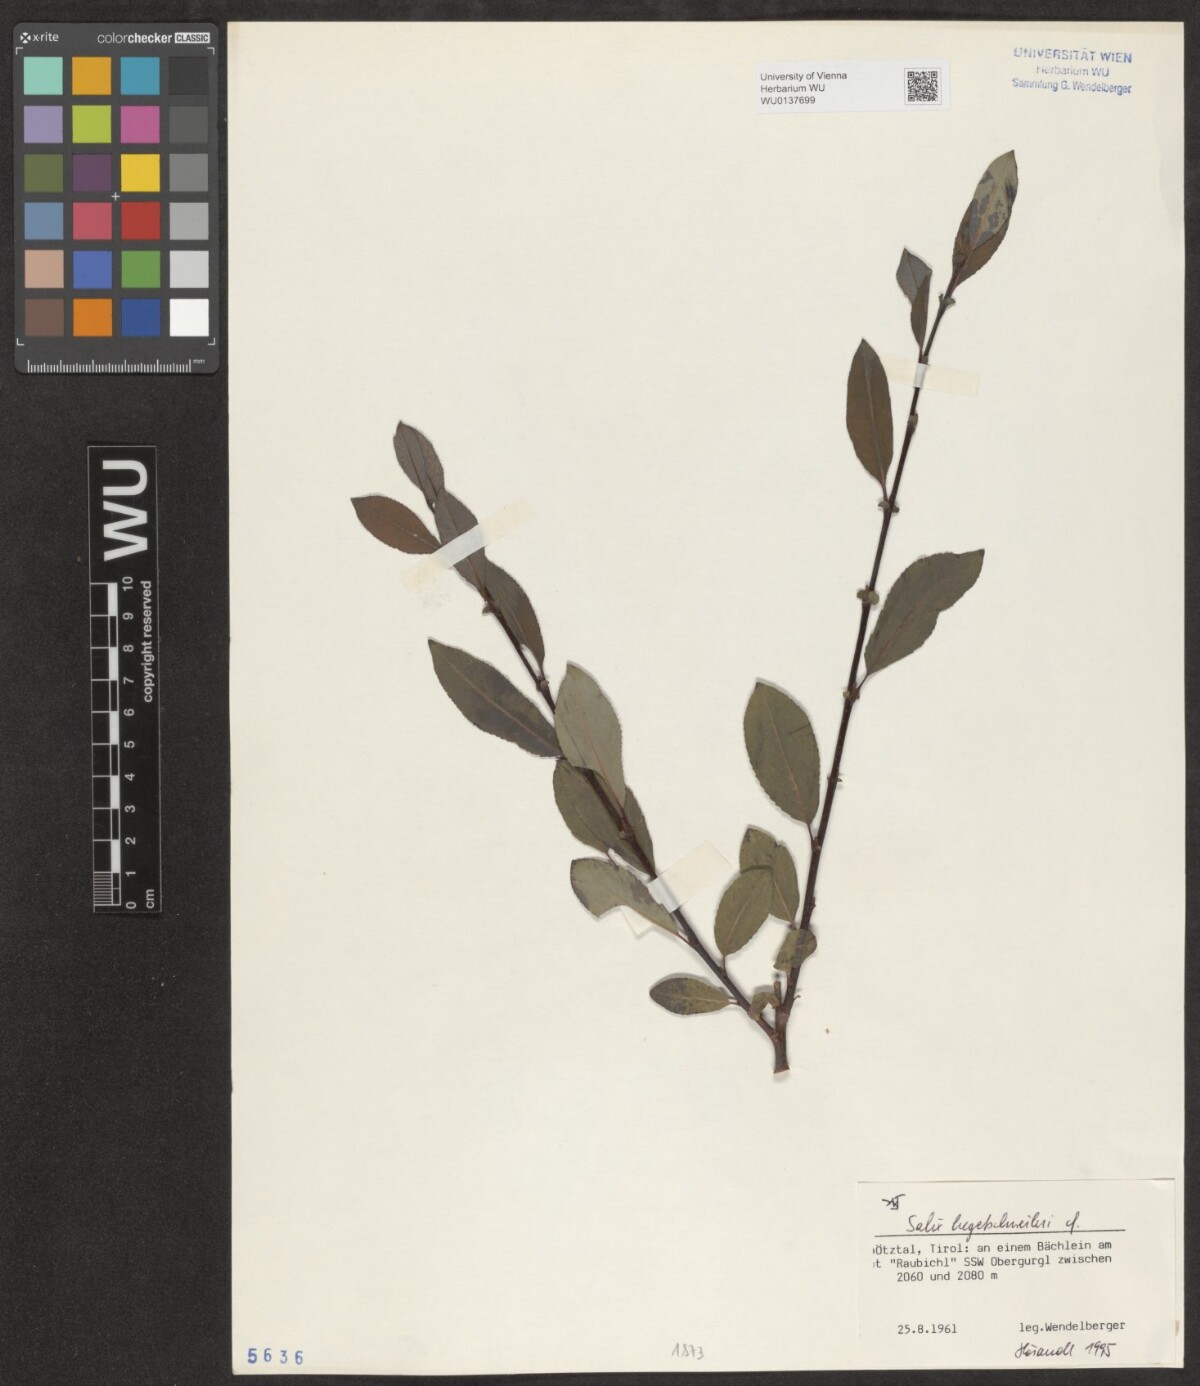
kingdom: Plantae
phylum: Tracheophyta
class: Magnoliopsida
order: Malpighiales
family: Salicaceae
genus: Salix
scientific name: Salix hegetschweileri
